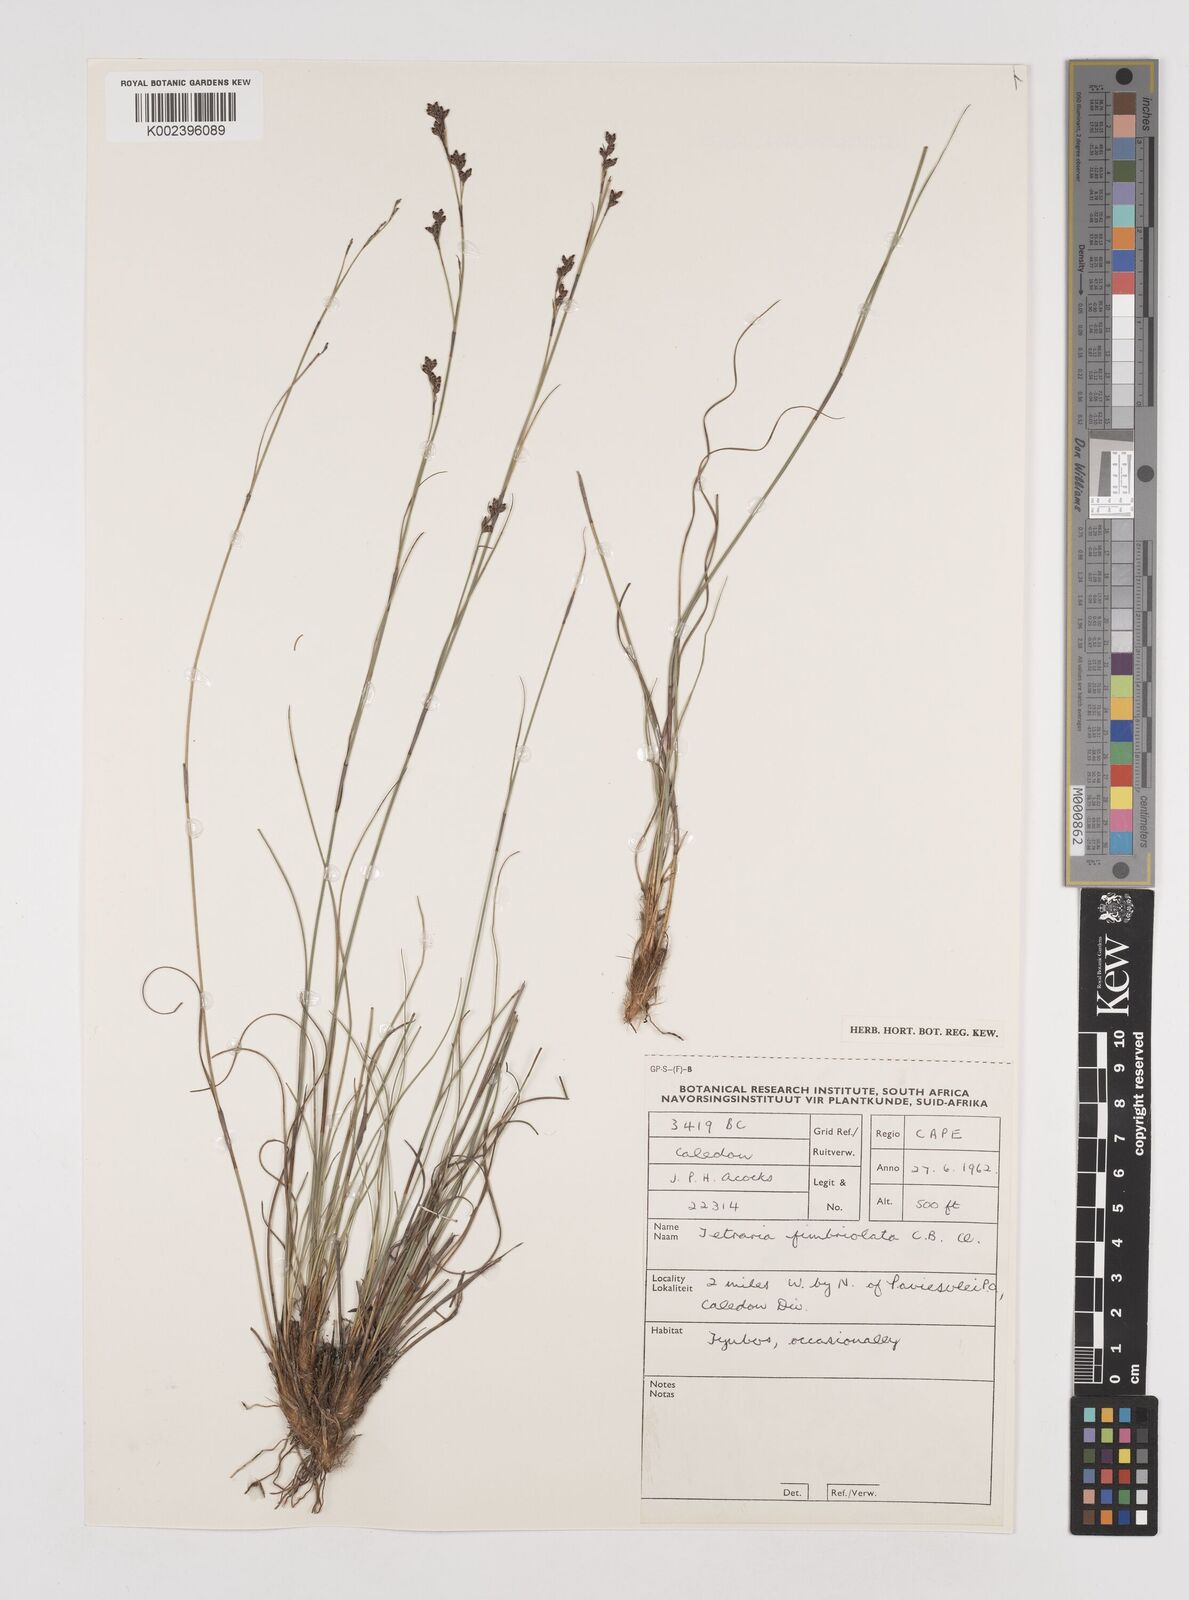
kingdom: Plantae
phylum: Tracheophyta
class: Liliopsida
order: Poales
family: Cyperaceae
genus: Tetraria
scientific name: Tetraria fimbriolata
